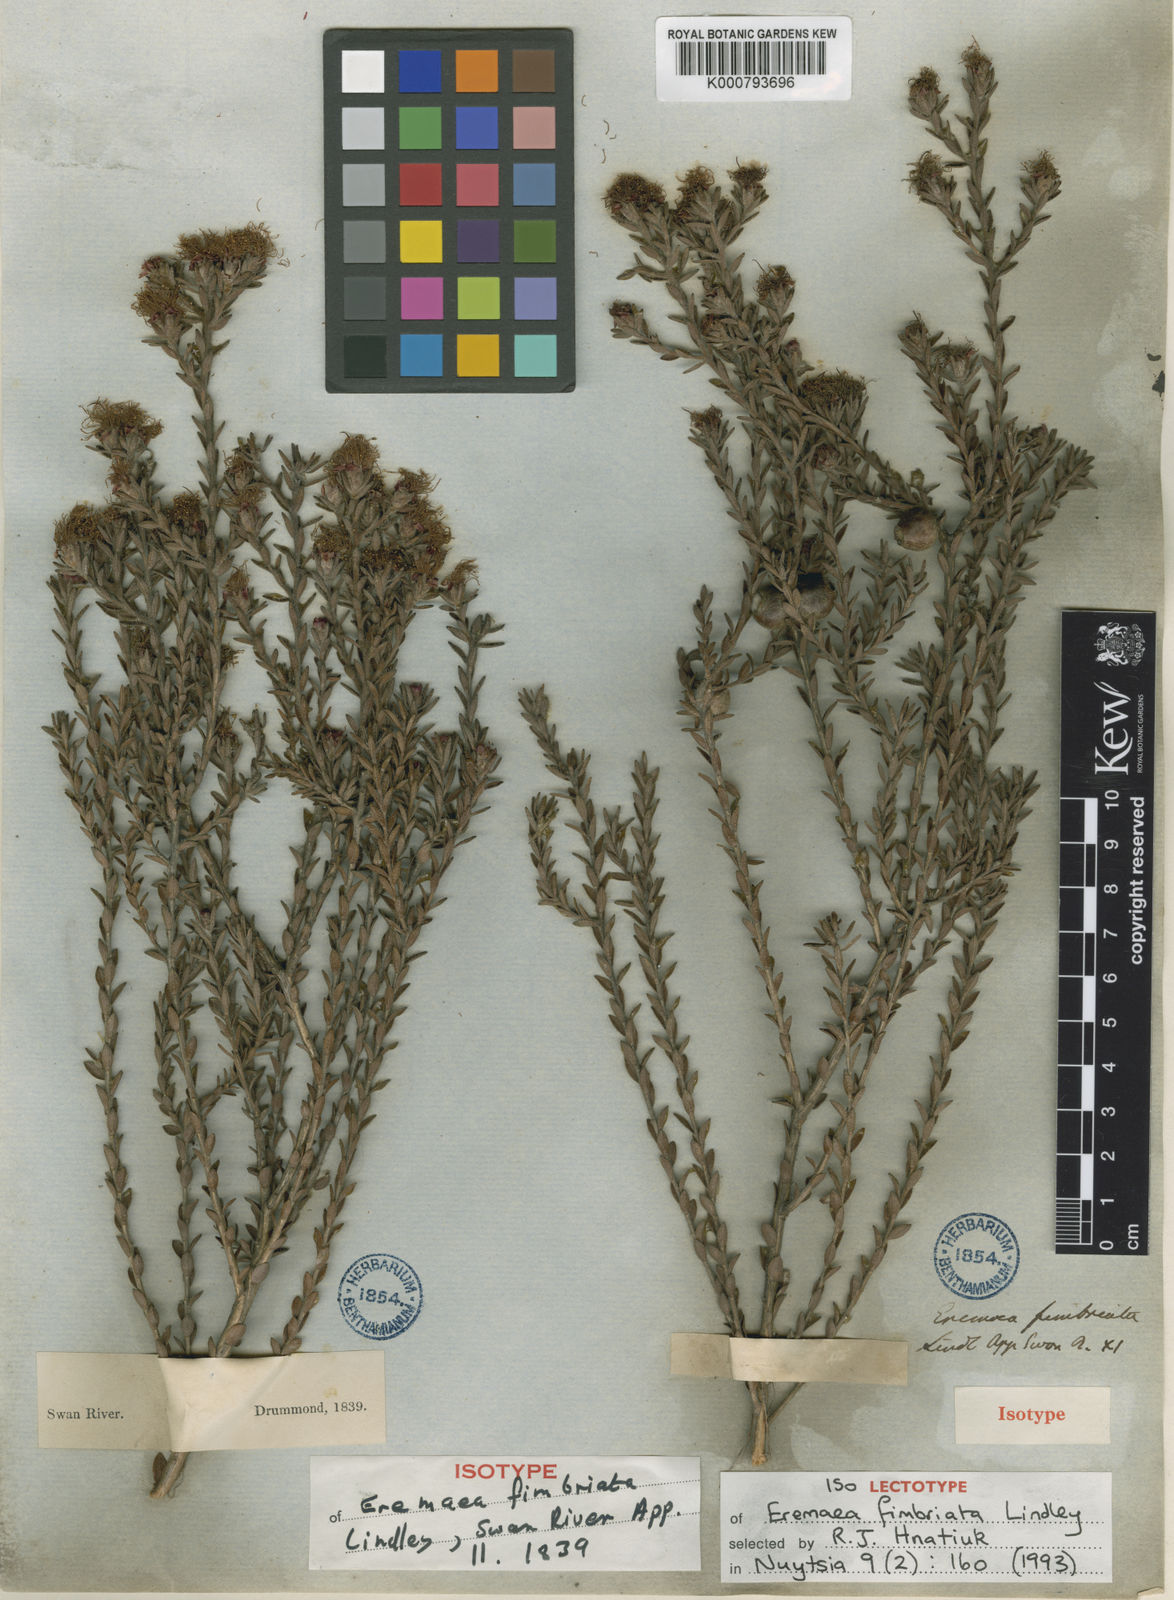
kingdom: Plantae
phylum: Tracheophyta
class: Magnoliopsida
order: Myrtales
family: Myrtaceae
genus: Melaleuca
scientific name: Melaleuca thysanota
